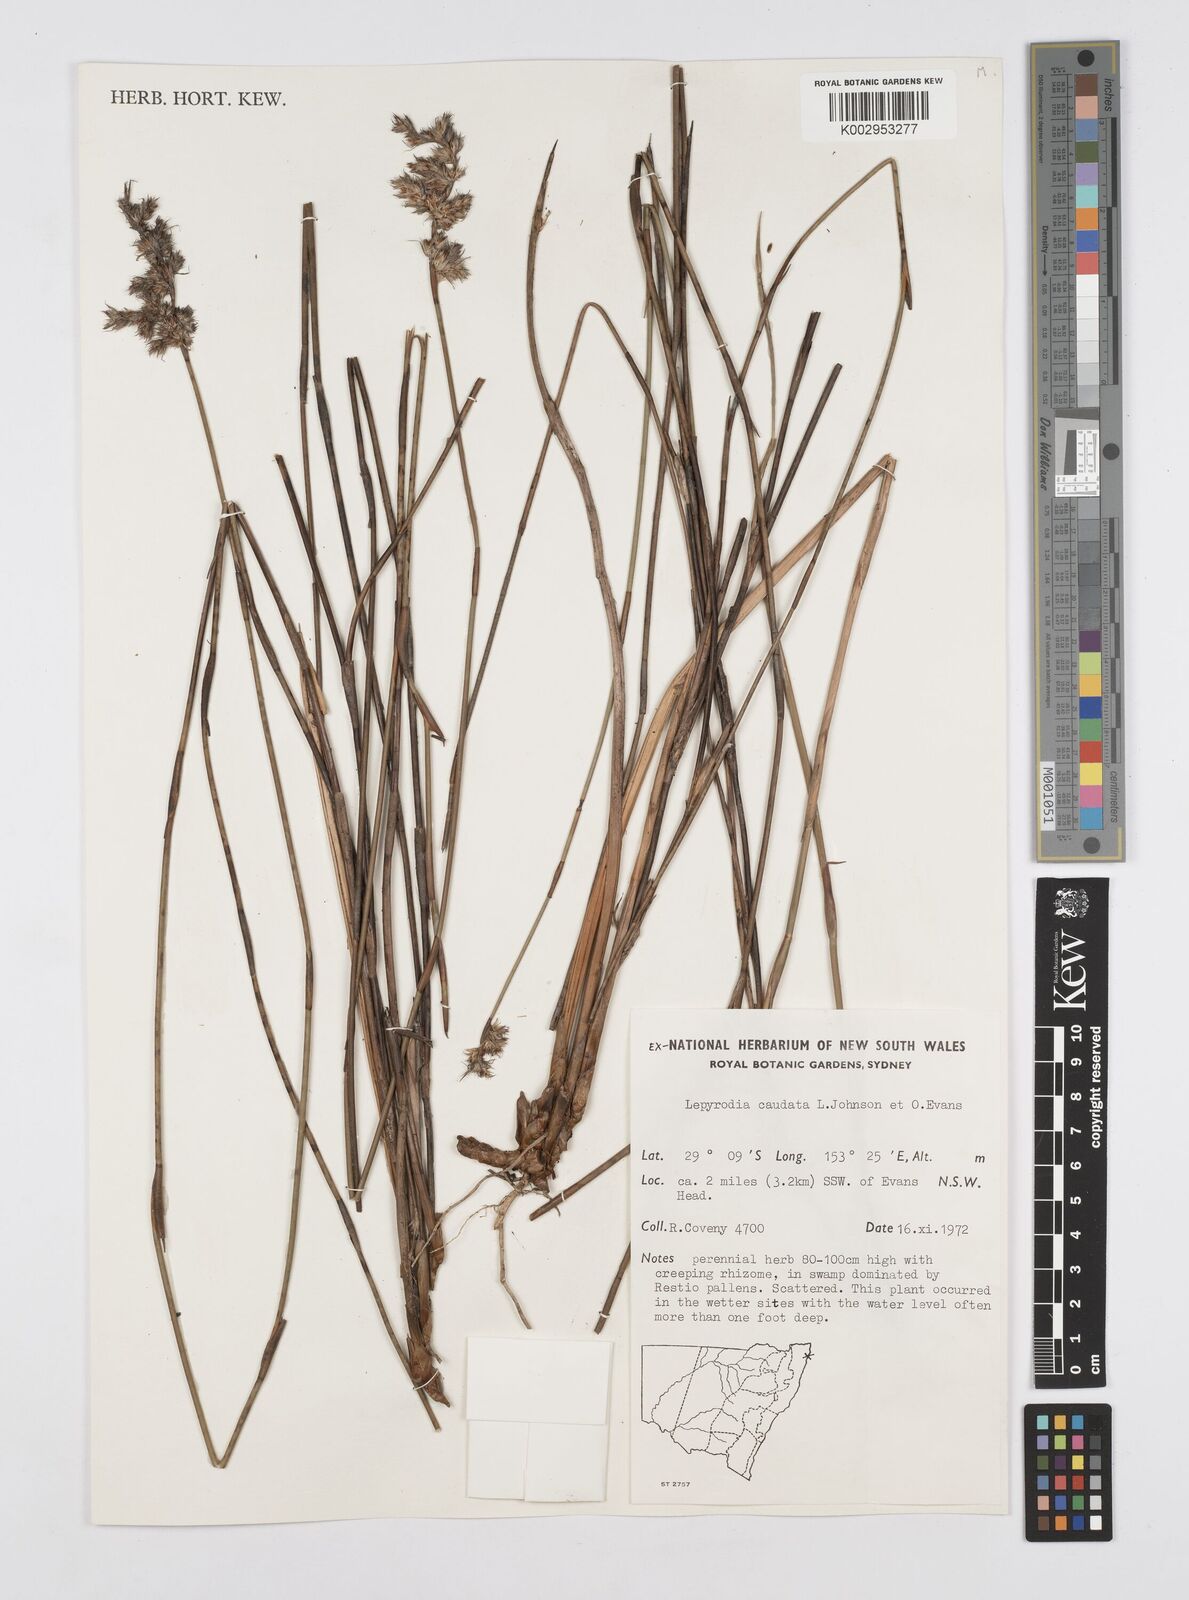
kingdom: Plantae
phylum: Tracheophyta
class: Liliopsida
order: Poales
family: Restionaceae
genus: Sporadanthus
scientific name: Sporadanthus caudatus
